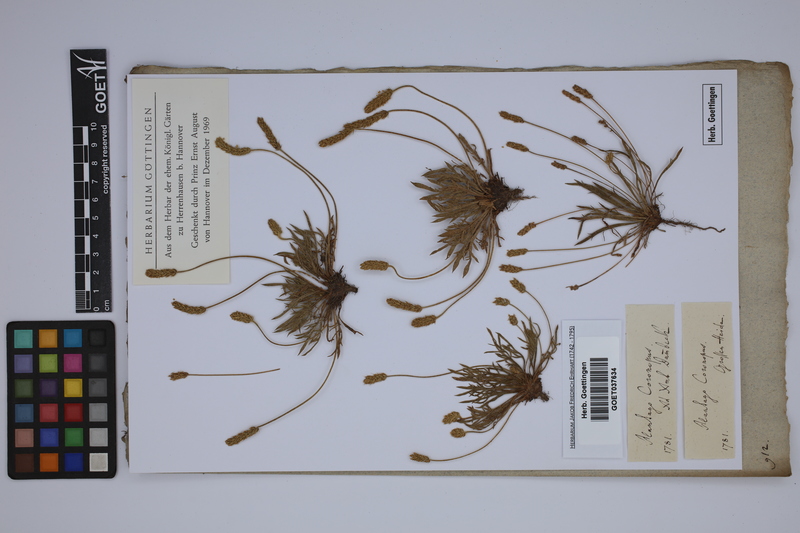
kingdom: Plantae
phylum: Tracheophyta
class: Magnoliopsida
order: Lamiales
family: Plantaginaceae
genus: Plantago
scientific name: Plantago coronopus
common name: Buck's-horn plantain
